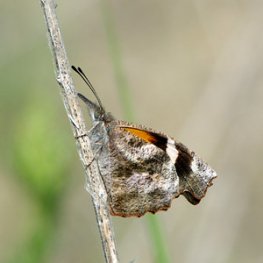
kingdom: Animalia
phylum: Arthropoda
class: Insecta
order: Lepidoptera
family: Nymphalidae
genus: Libytheana
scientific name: Libytheana carinenta
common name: American Snout
